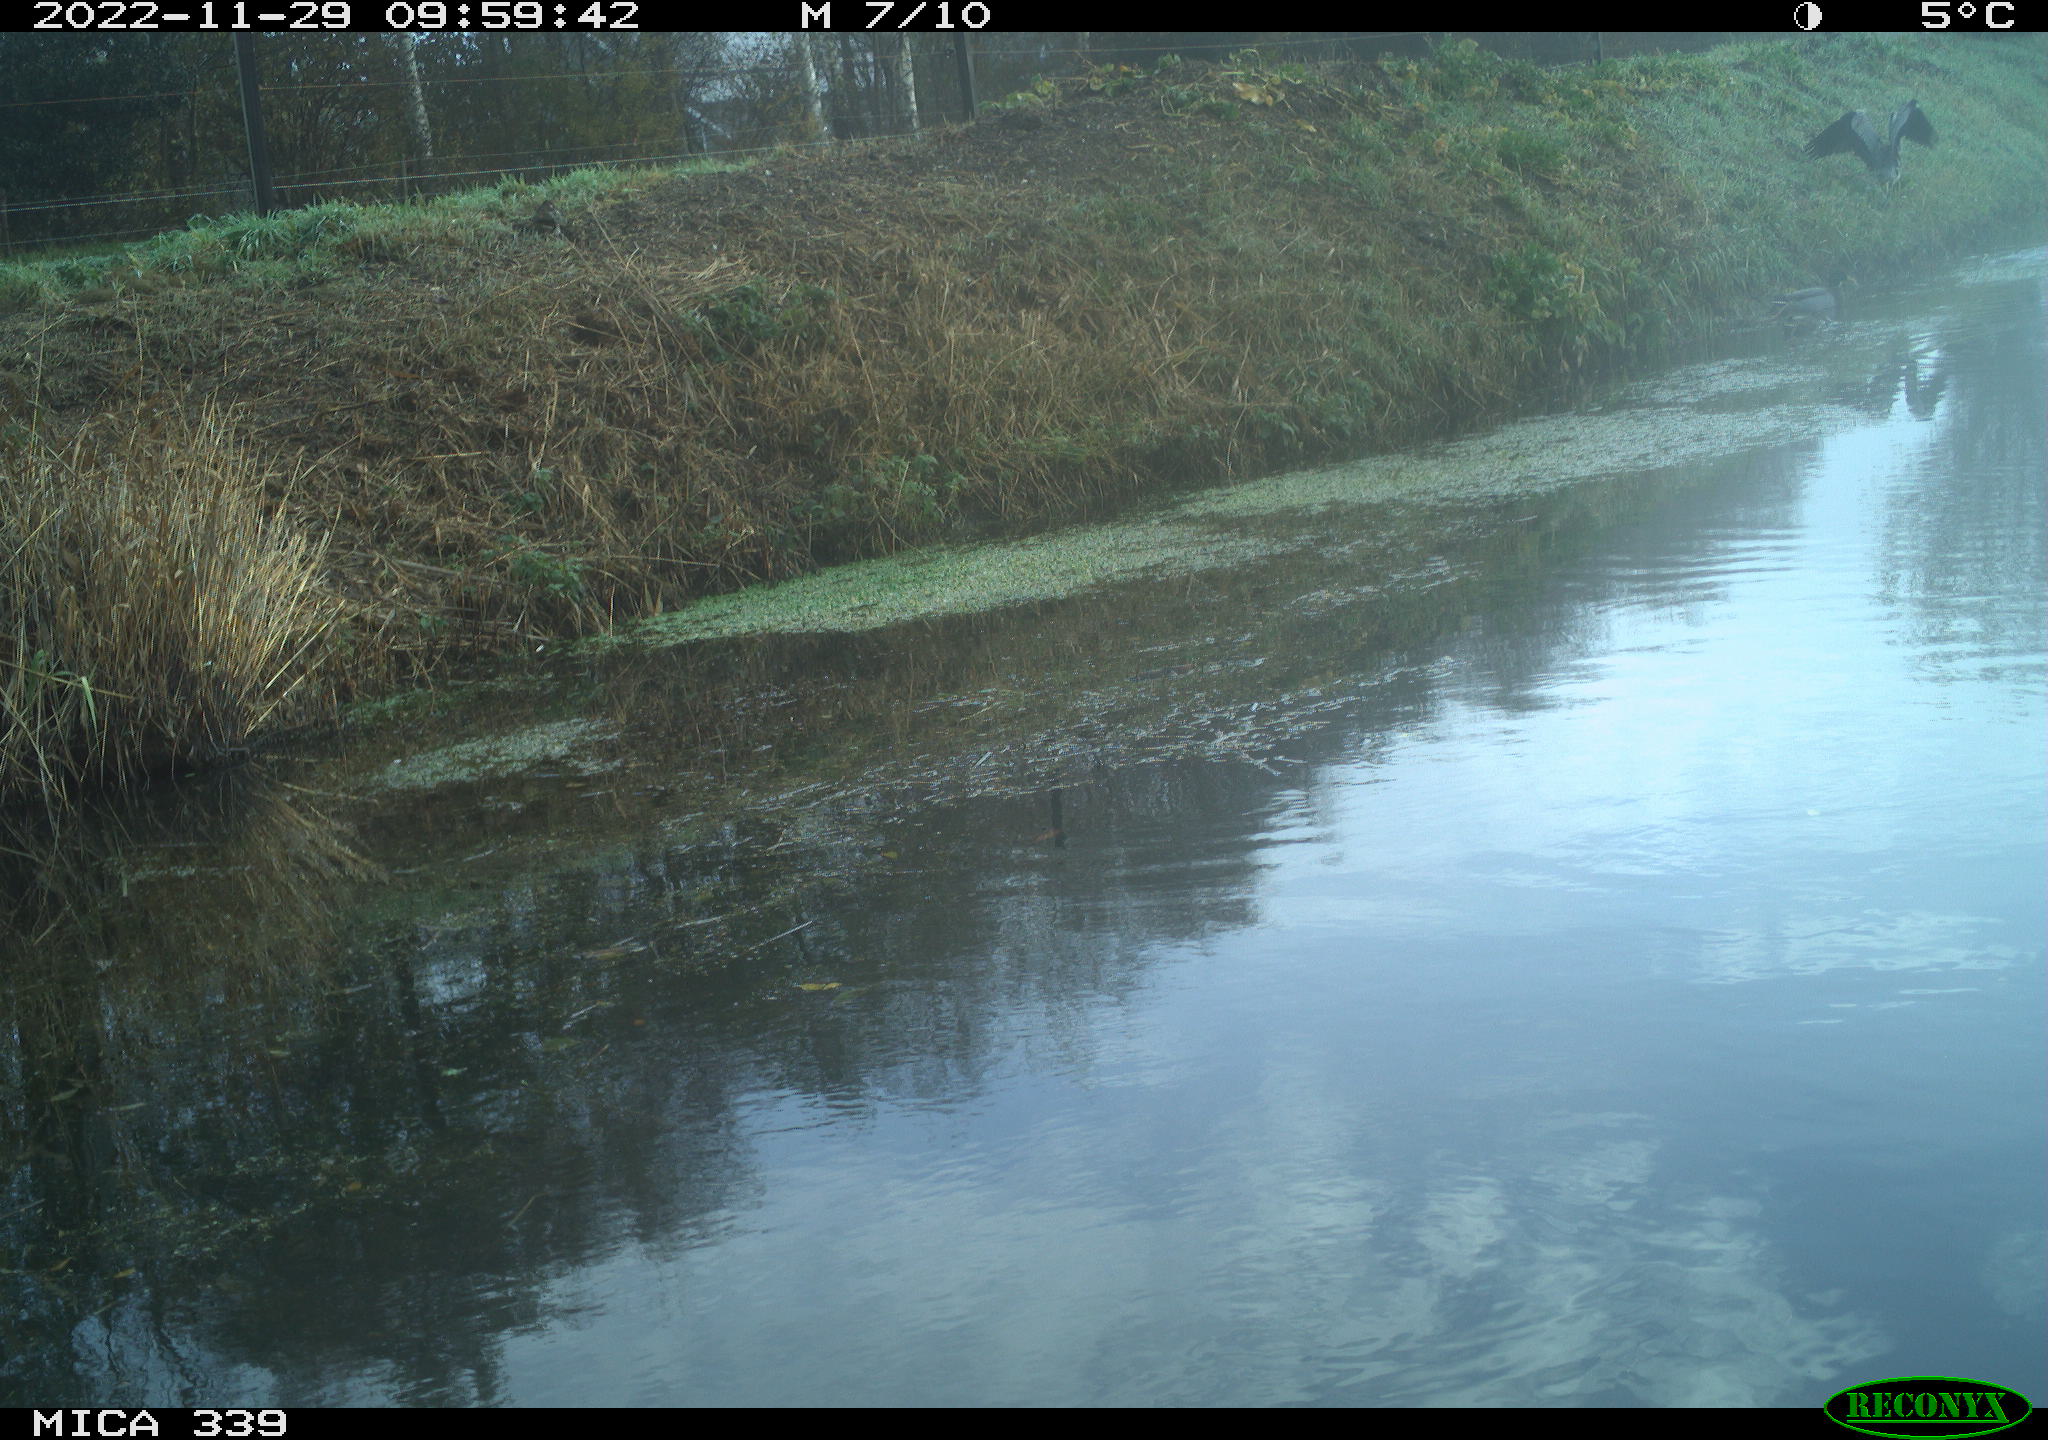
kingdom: Animalia
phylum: Chordata
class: Aves
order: Pelecaniformes
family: Ardeidae
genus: Ardea
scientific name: Ardea cinerea
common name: Grey heron
